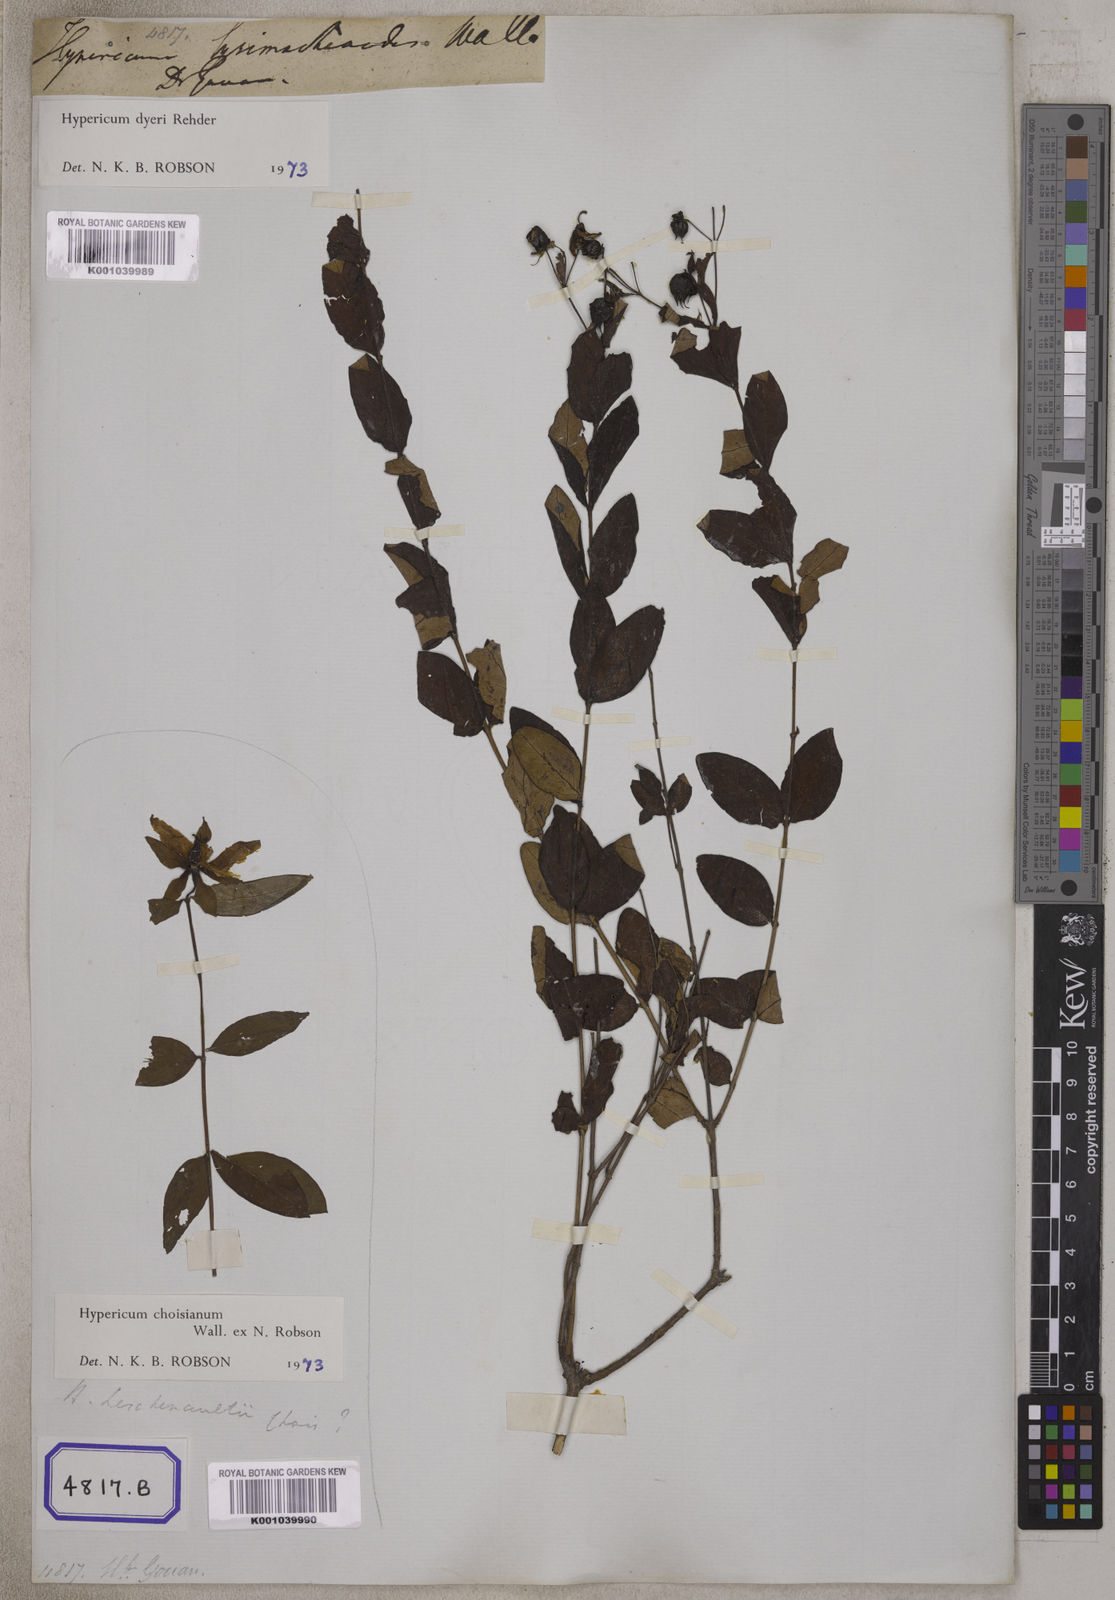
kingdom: Plantae
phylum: Tracheophyta
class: Magnoliopsida
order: Malpighiales
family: Hypericaceae
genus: Hypericum
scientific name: Hypericum
